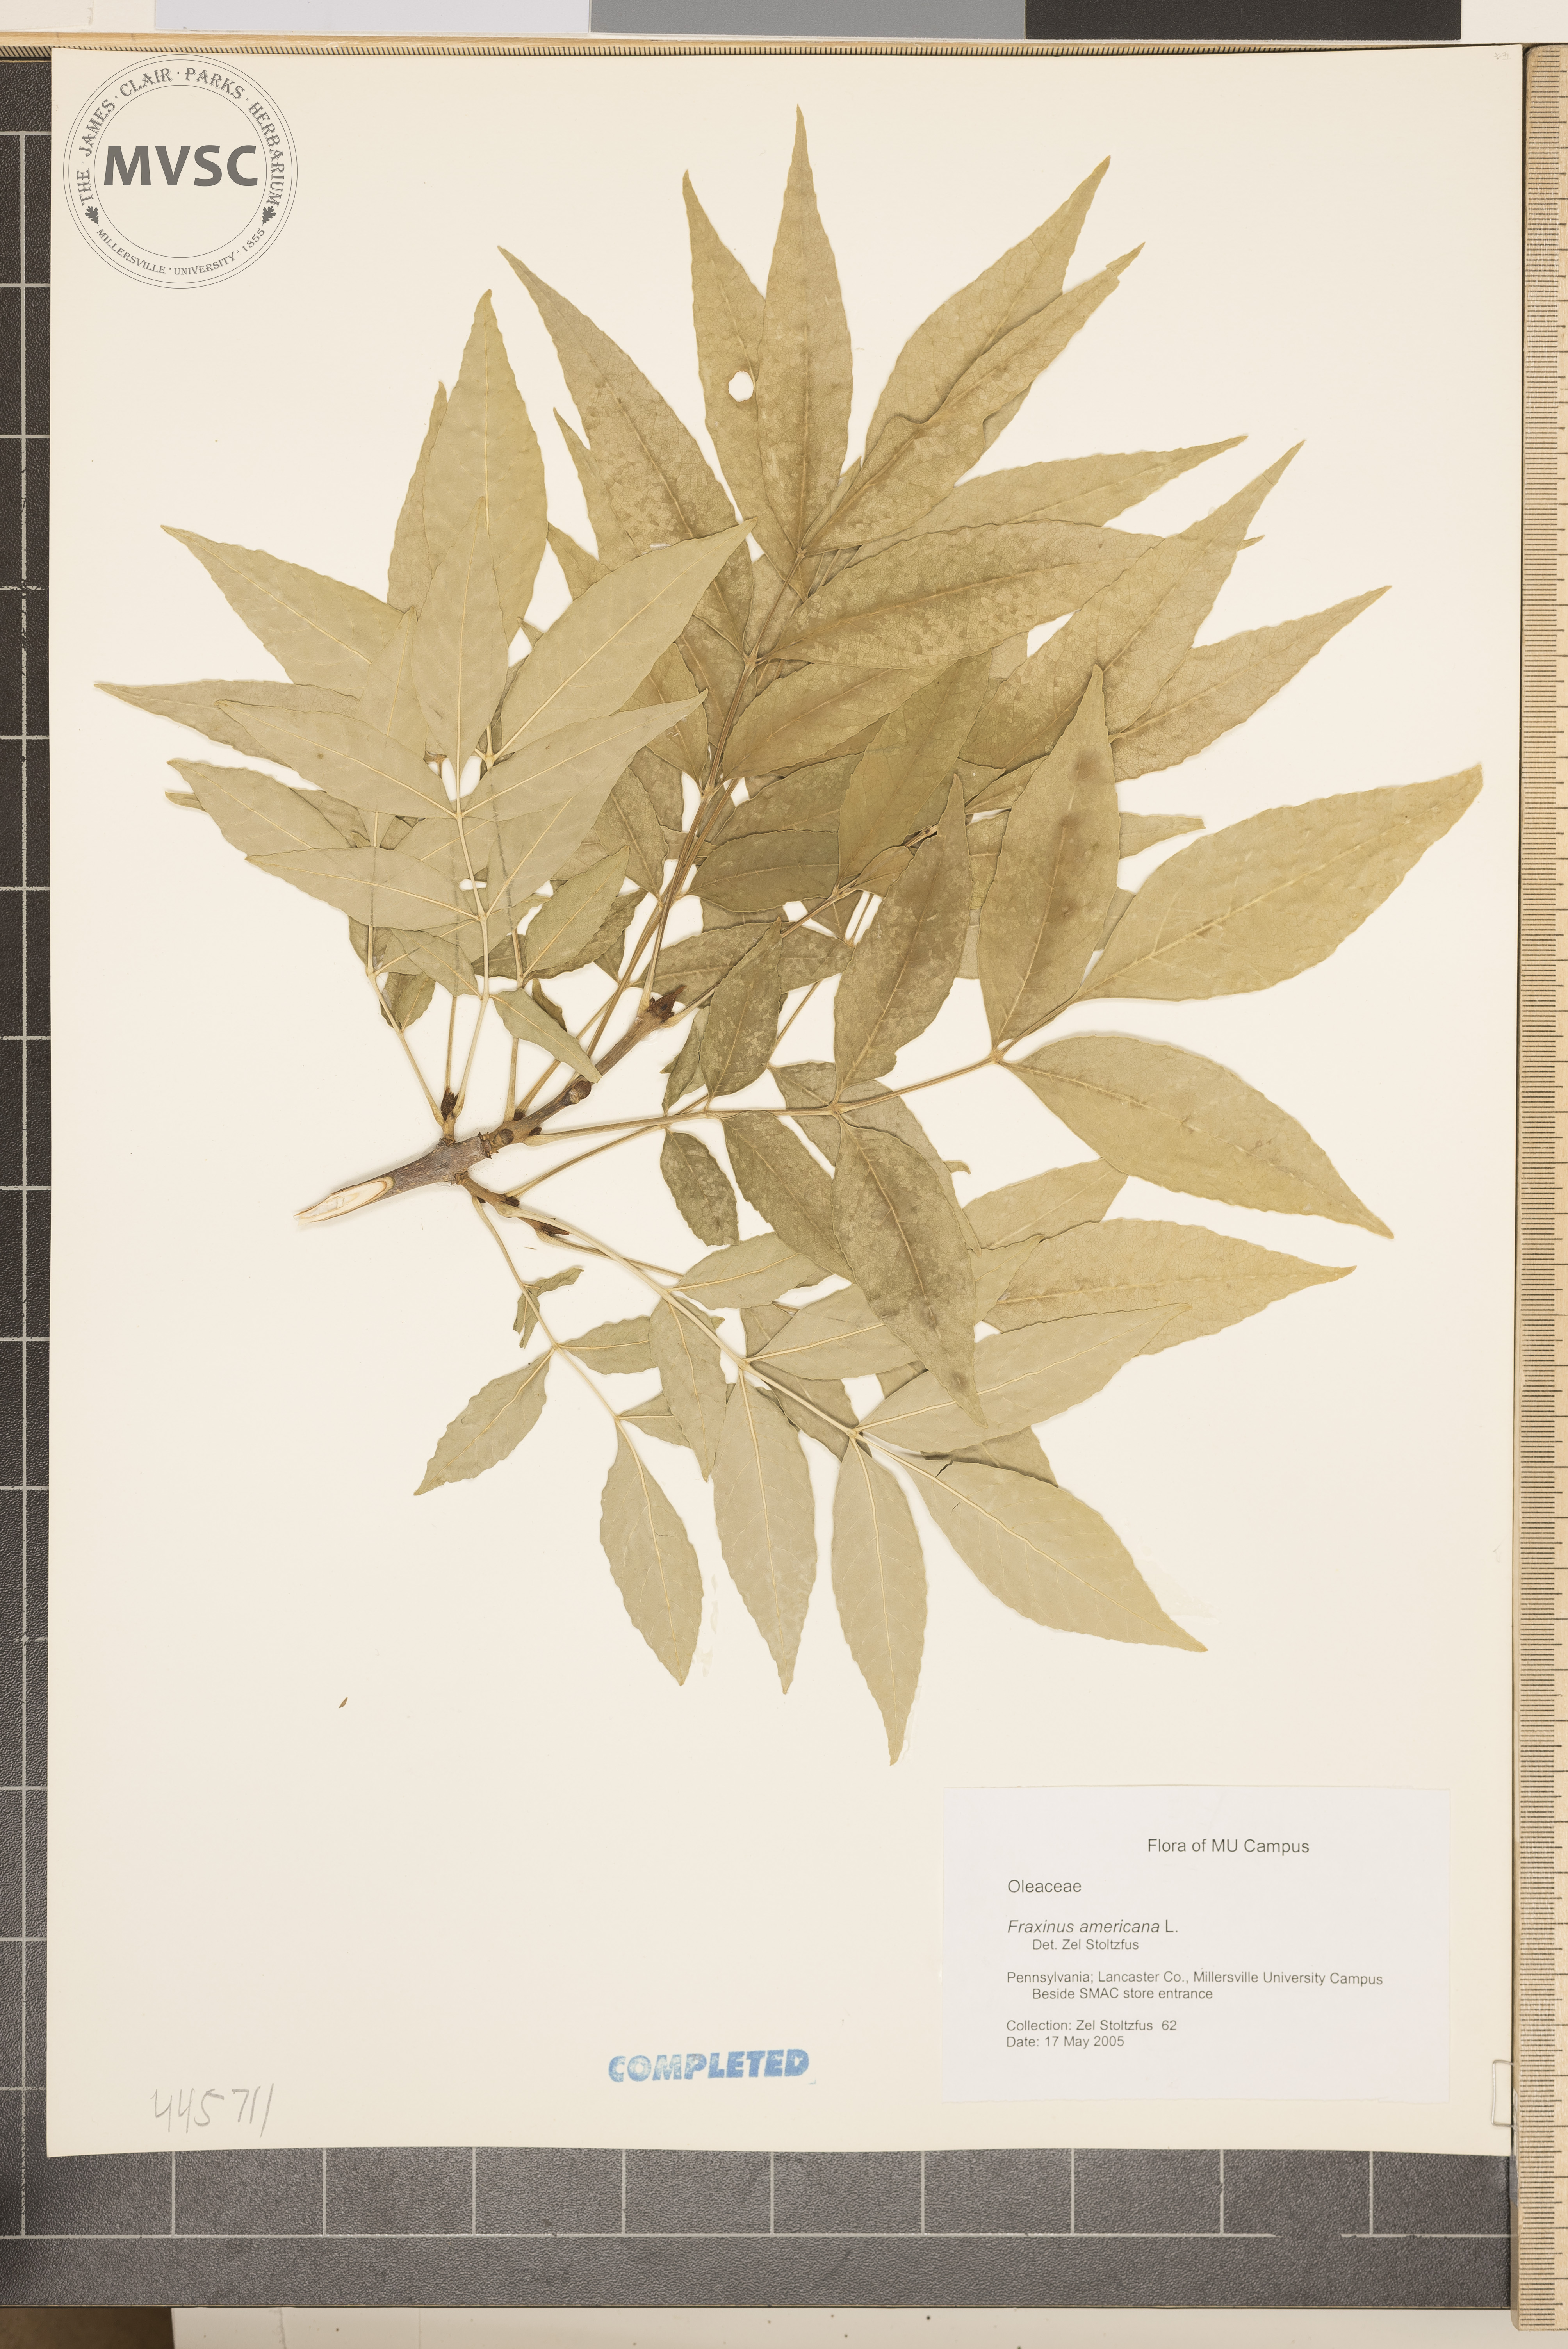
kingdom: Plantae
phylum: Tracheophyta
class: Magnoliopsida
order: Lamiales
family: Oleaceae
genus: Fraxinus
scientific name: Fraxinus americana
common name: White ash
